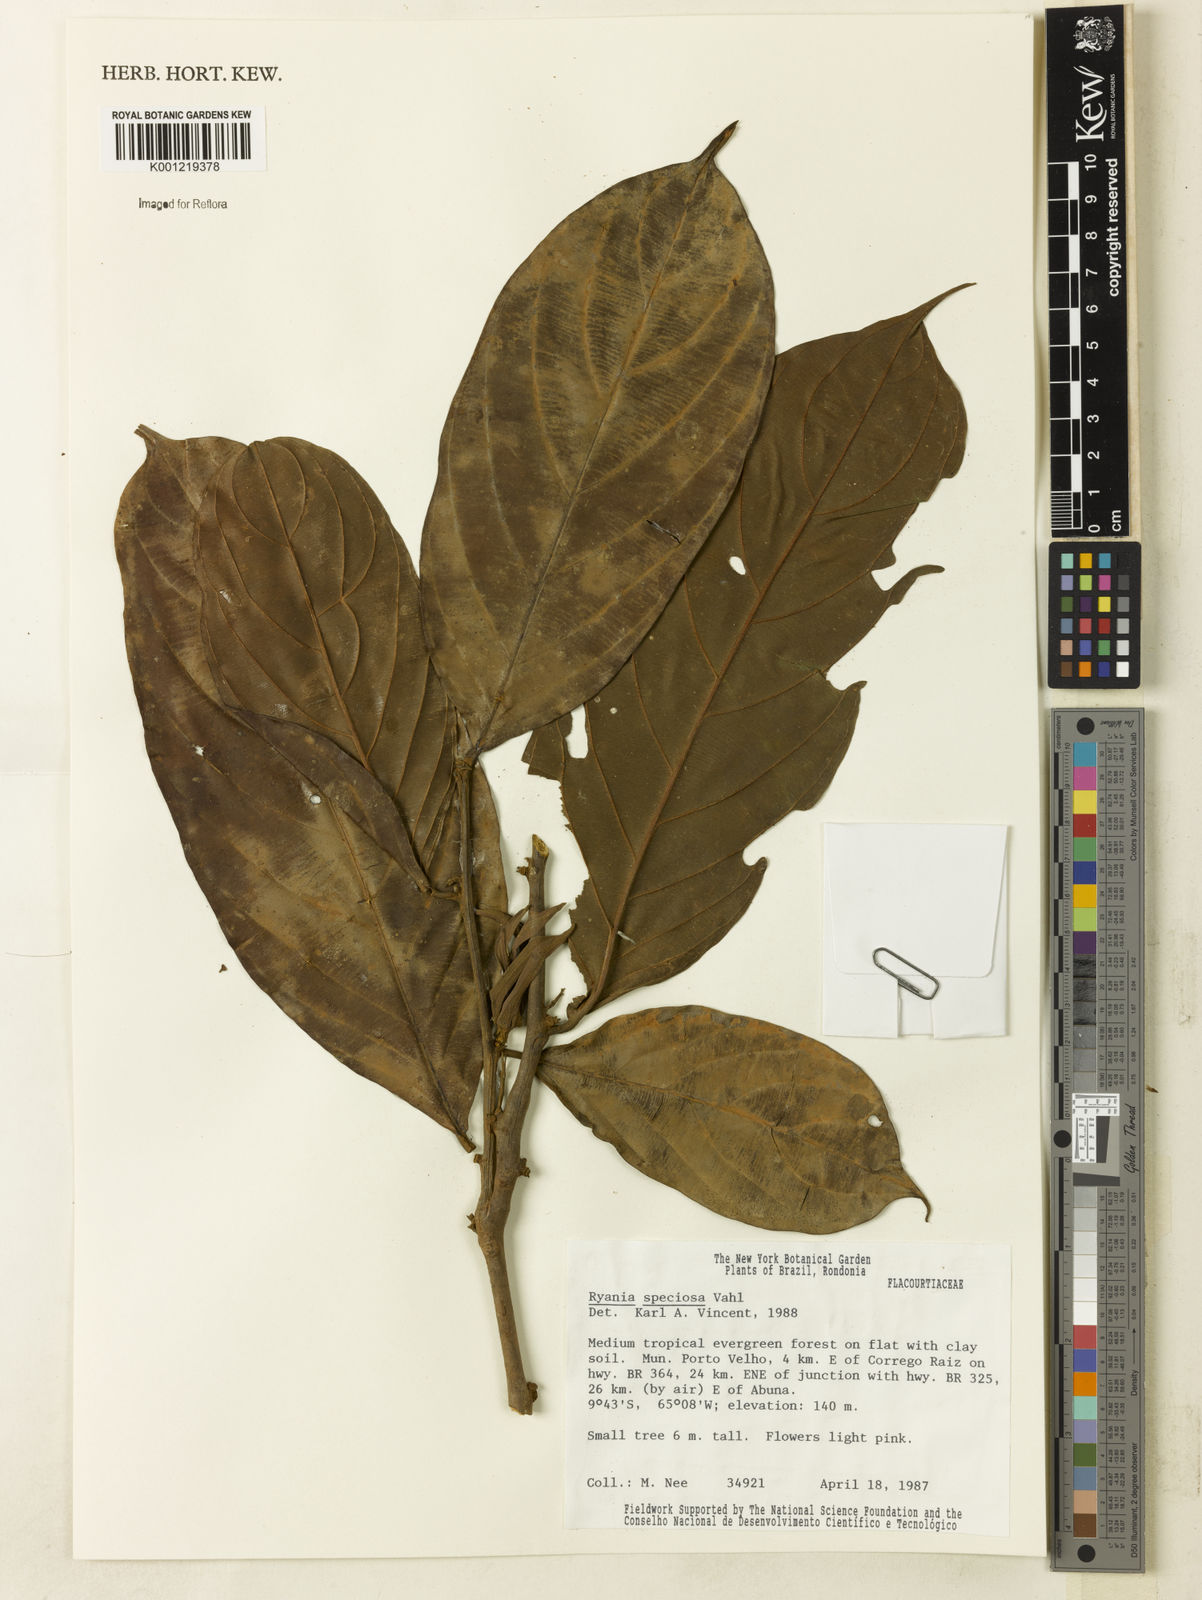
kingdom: Plantae
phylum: Tracheophyta
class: Magnoliopsida
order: Malpighiales
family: Salicaceae
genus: Ryania
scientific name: Ryania speciosa
